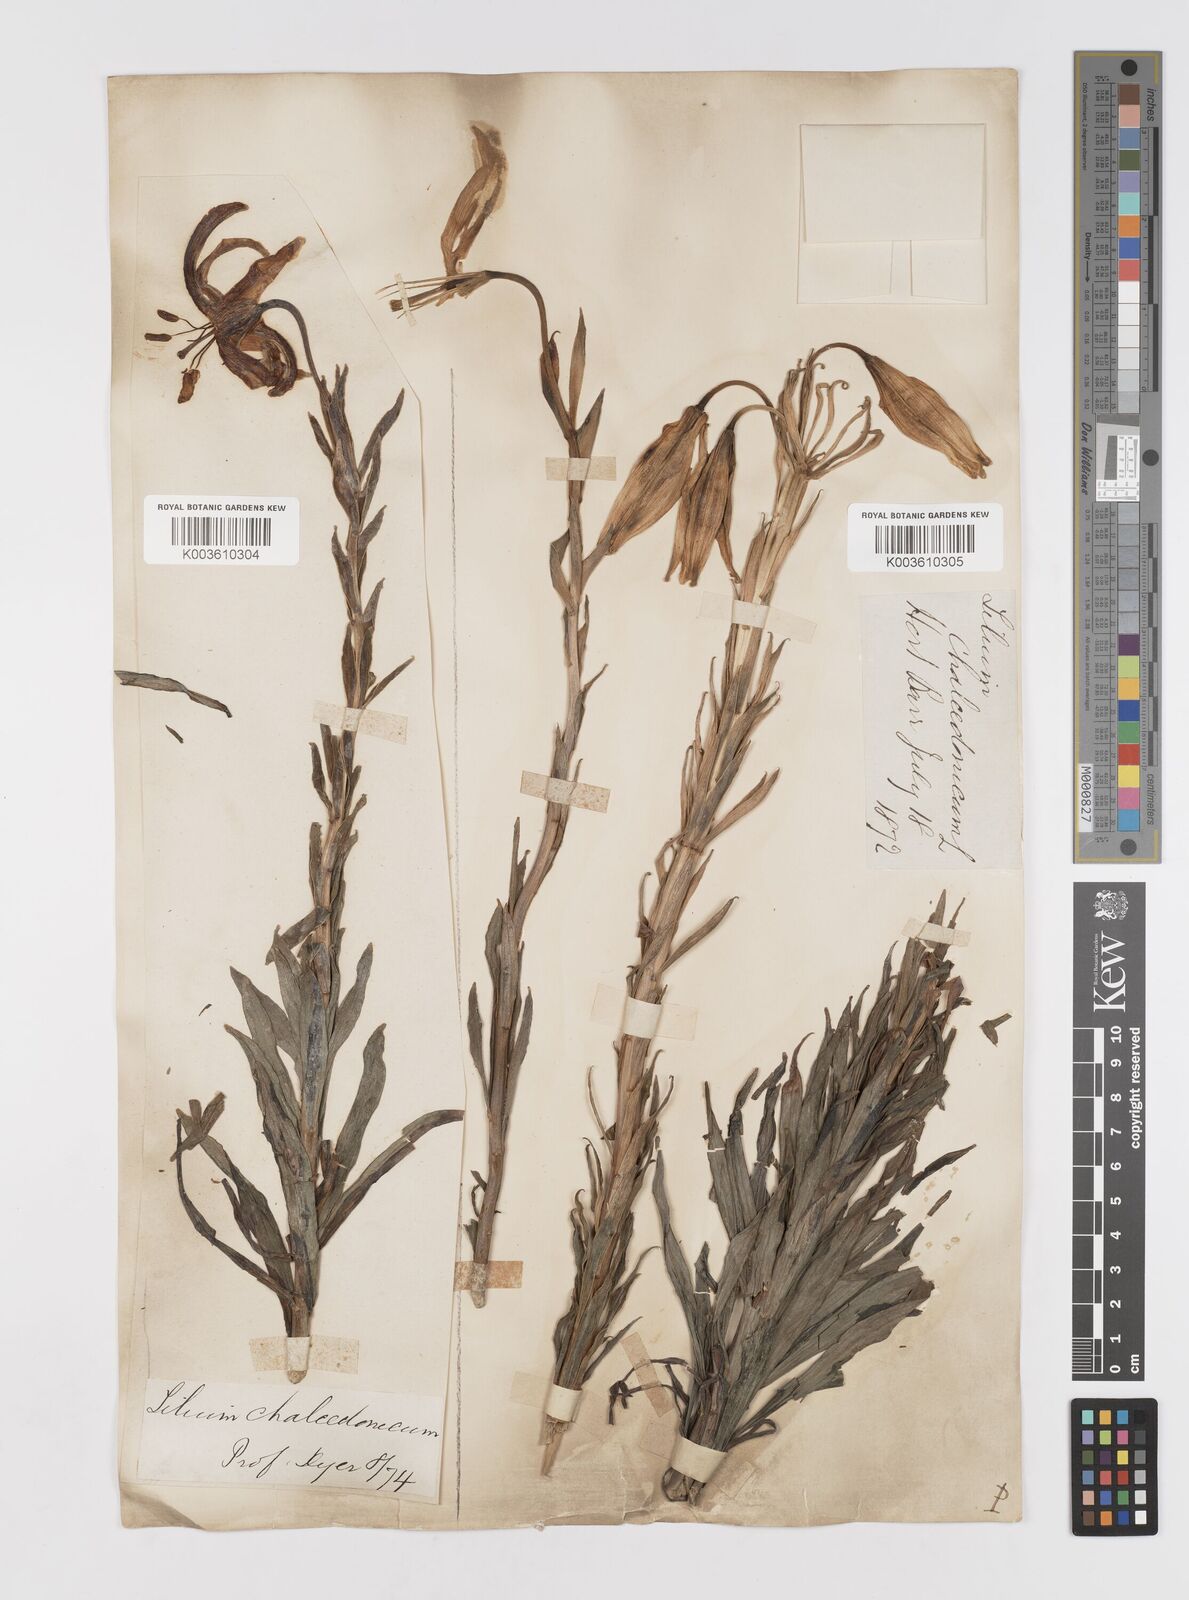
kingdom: Plantae
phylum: Tracheophyta
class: Liliopsida
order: Liliales
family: Liliaceae
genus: Lilium
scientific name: Lilium chalcedonicum
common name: Red martagon of constantinople
